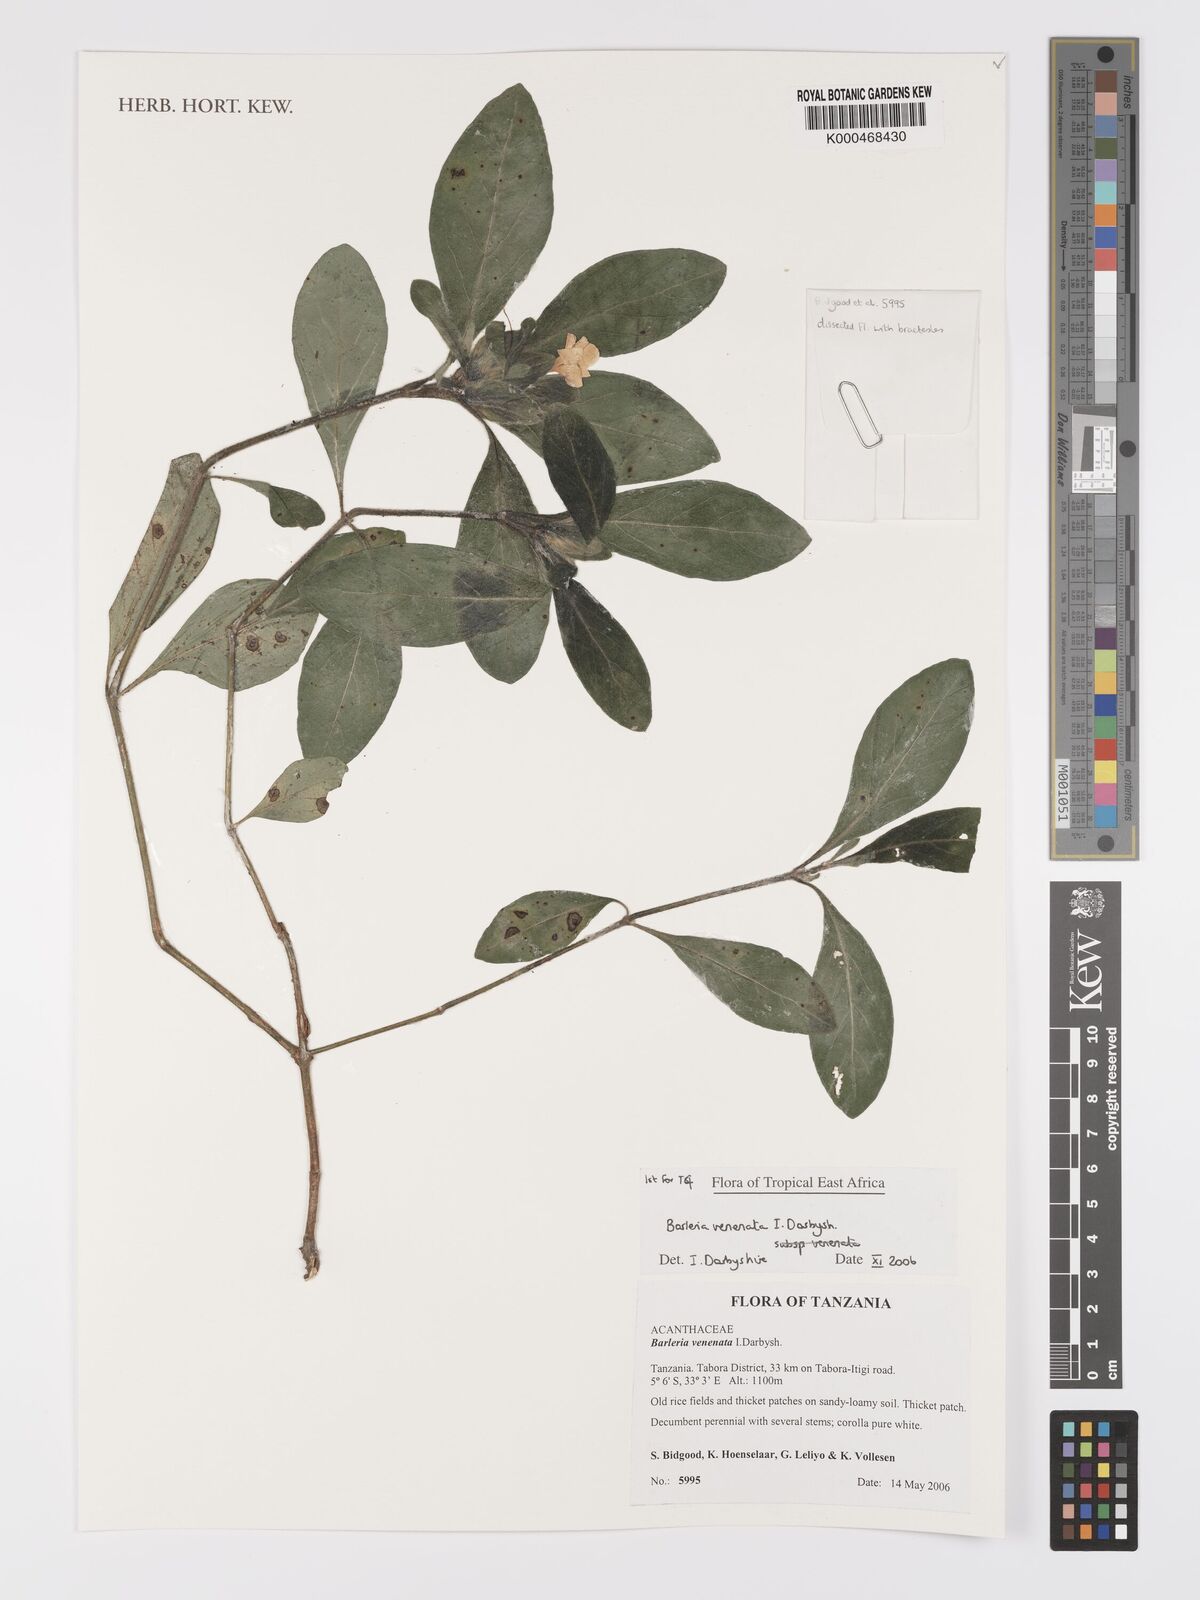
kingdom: Plantae
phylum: Tracheophyta
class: Magnoliopsida
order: Lamiales
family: Acanthaceae
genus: Barleria
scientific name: Barleria venenata
